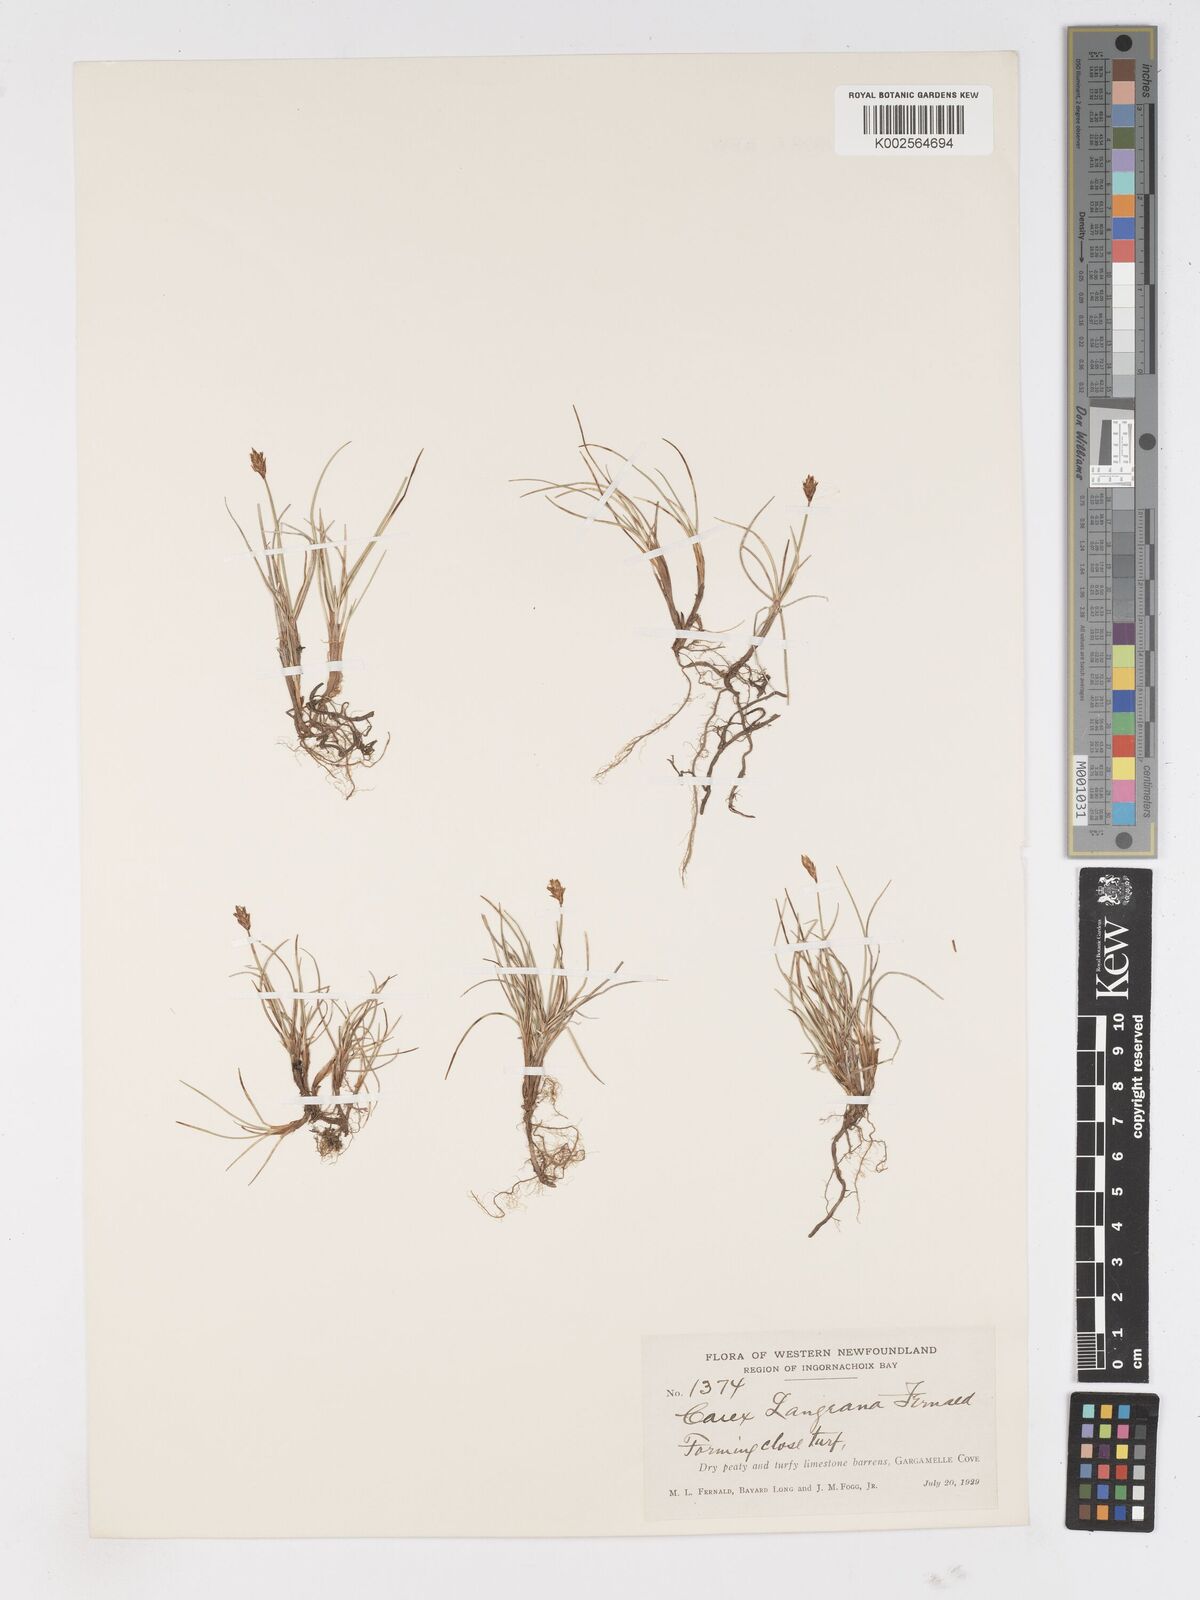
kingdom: Plantae
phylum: Tracheophyta
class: Liliopsida
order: Poales
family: Cyperaceae
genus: Carex
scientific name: Carex langeana
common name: Lange's sedge
